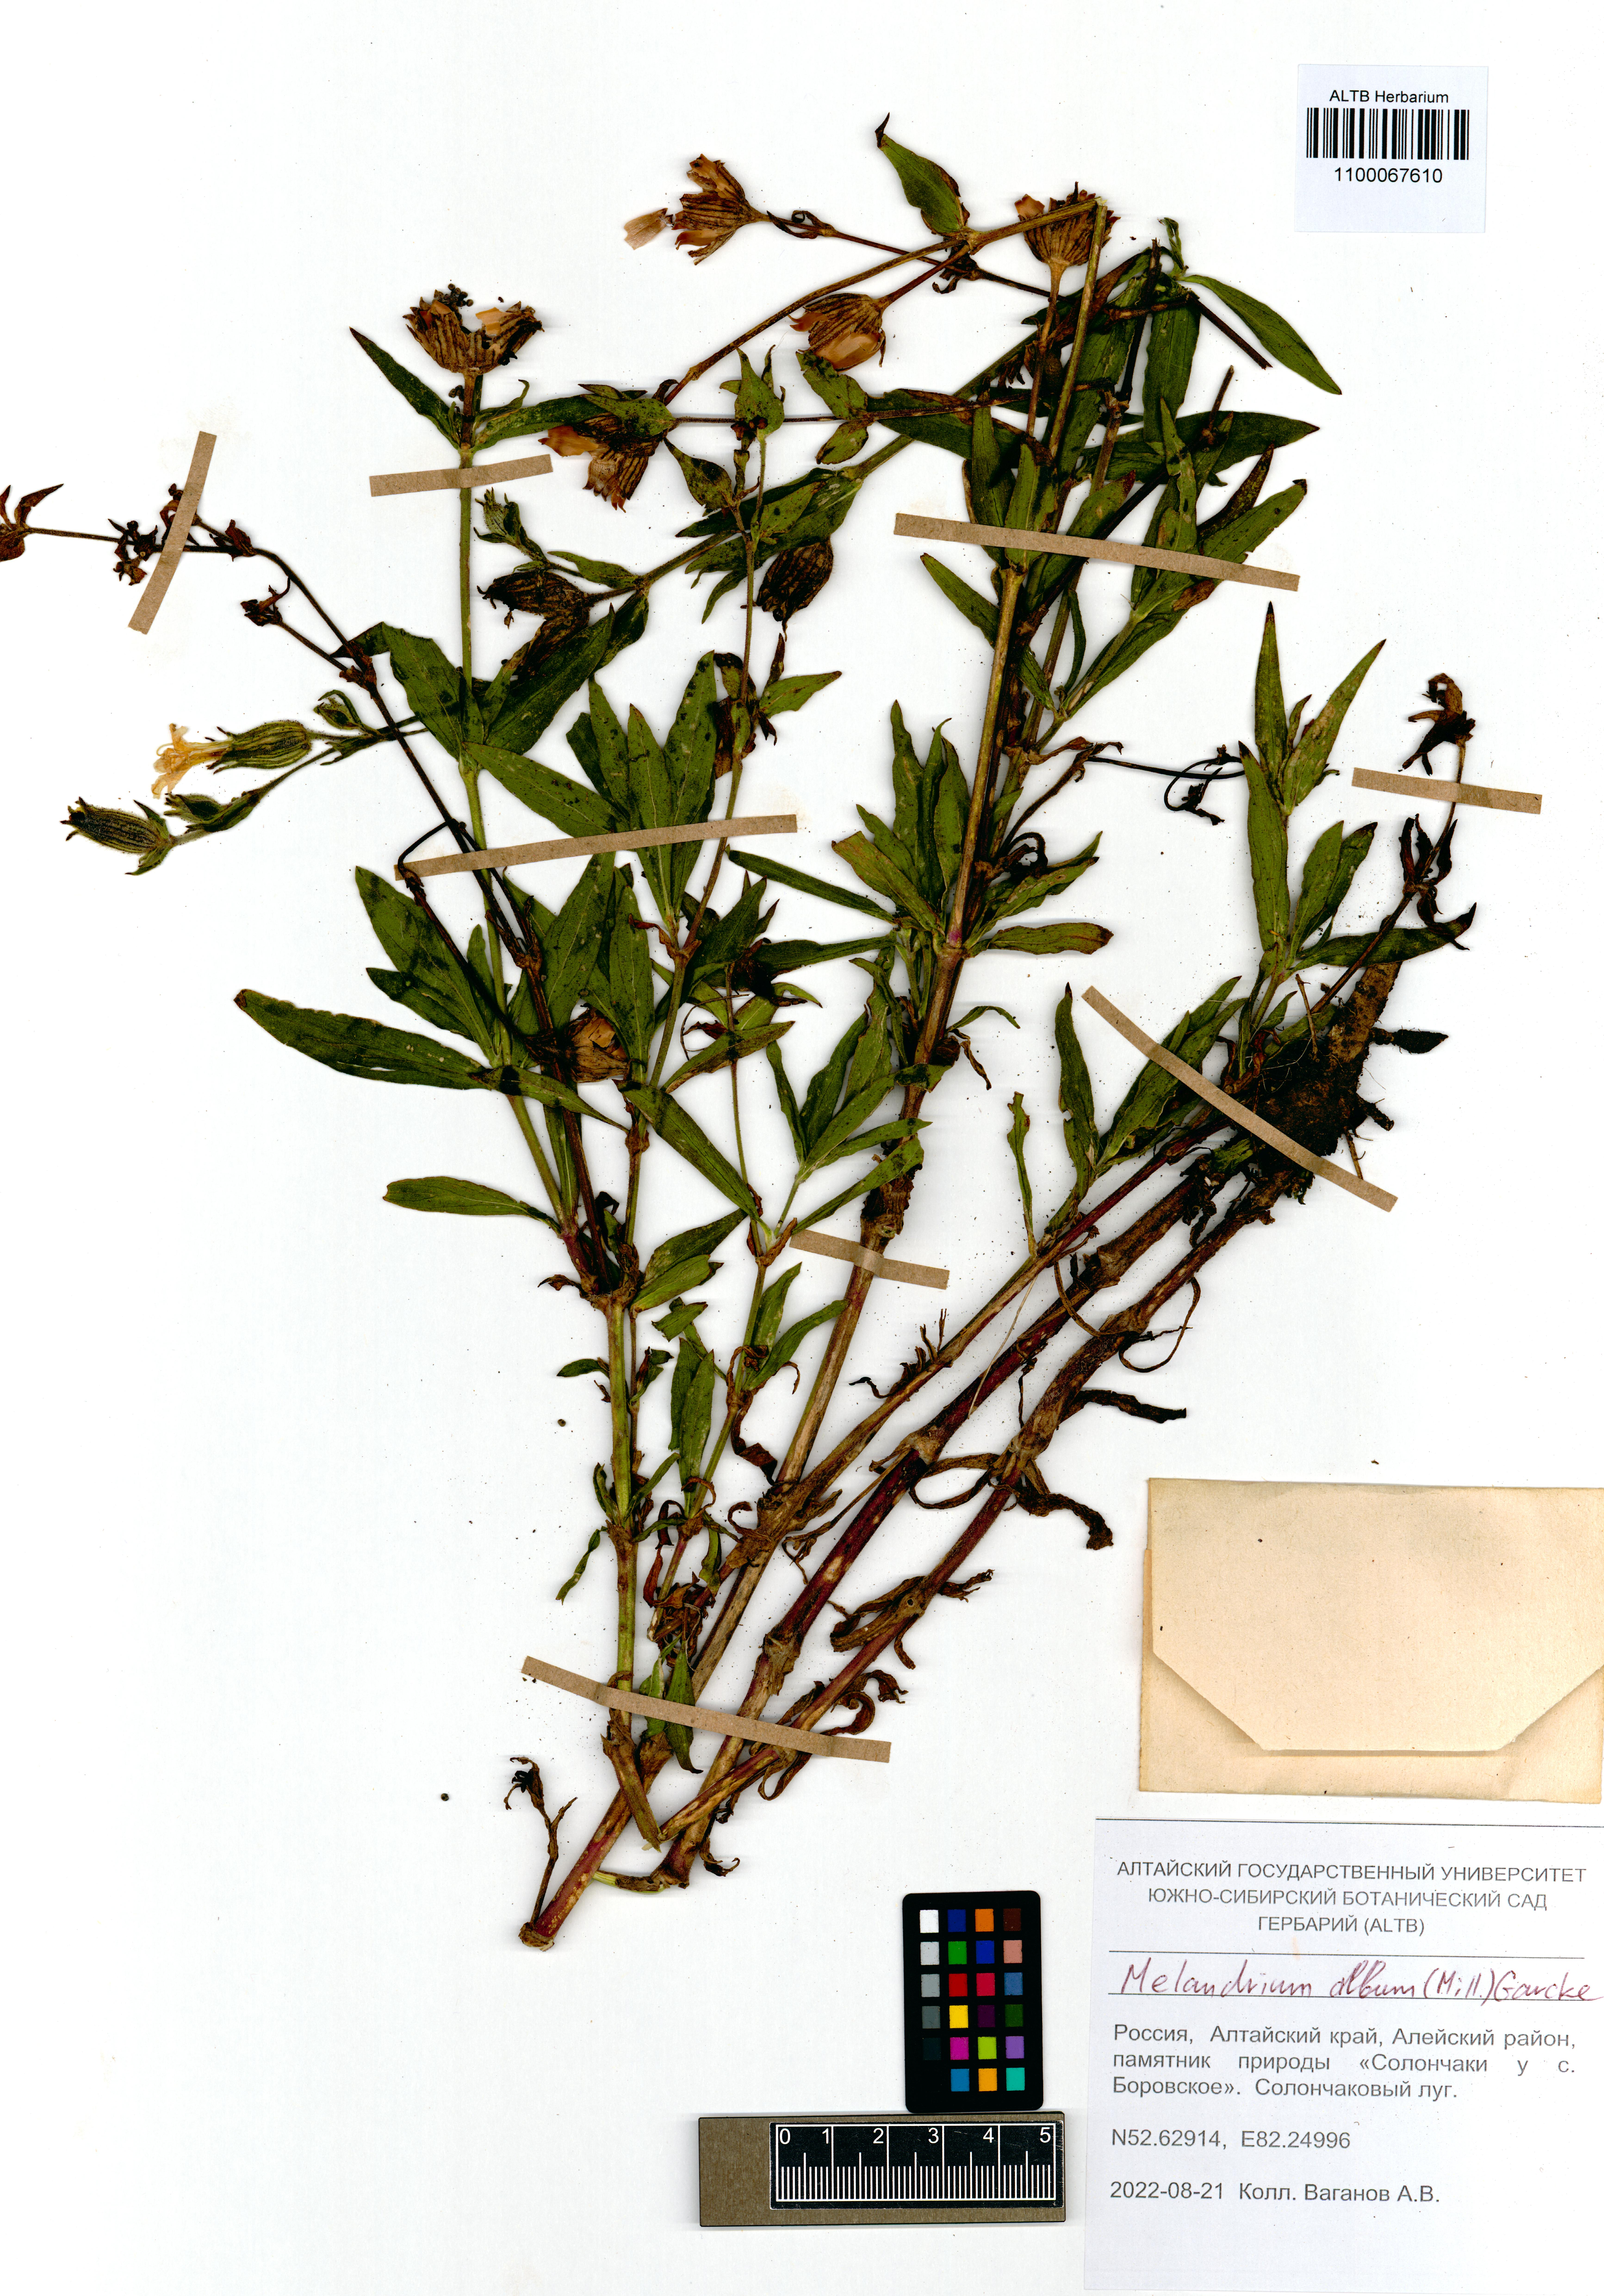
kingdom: Plantae
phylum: Tracheophyta
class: Magnoliopsida
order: Caryophyllales
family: Caryophyllaceae
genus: Silene
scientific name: Silene latifolia
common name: White campion
